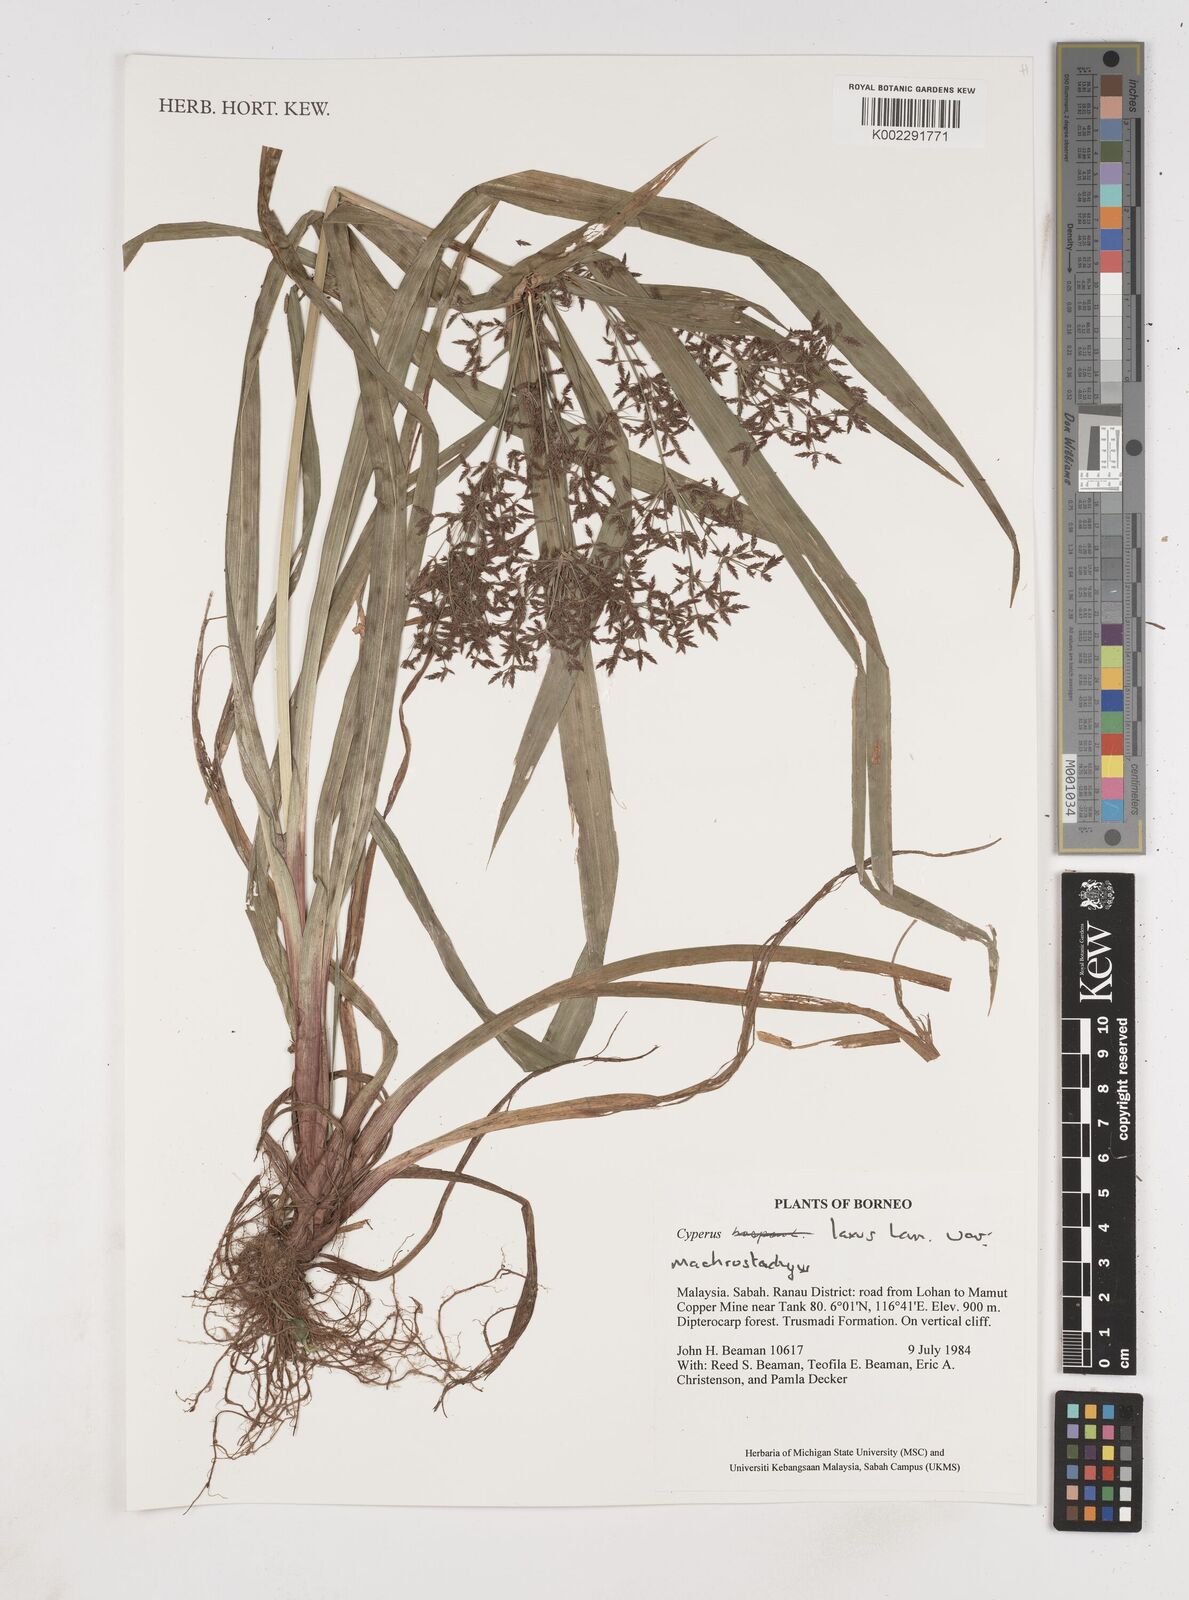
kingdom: Plantae
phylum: Tracheophyta
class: Liliopsida
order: Poales
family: Cyperaceae
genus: Cyperus
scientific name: Cyperus diffusus
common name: Dwarf umbrella grass
